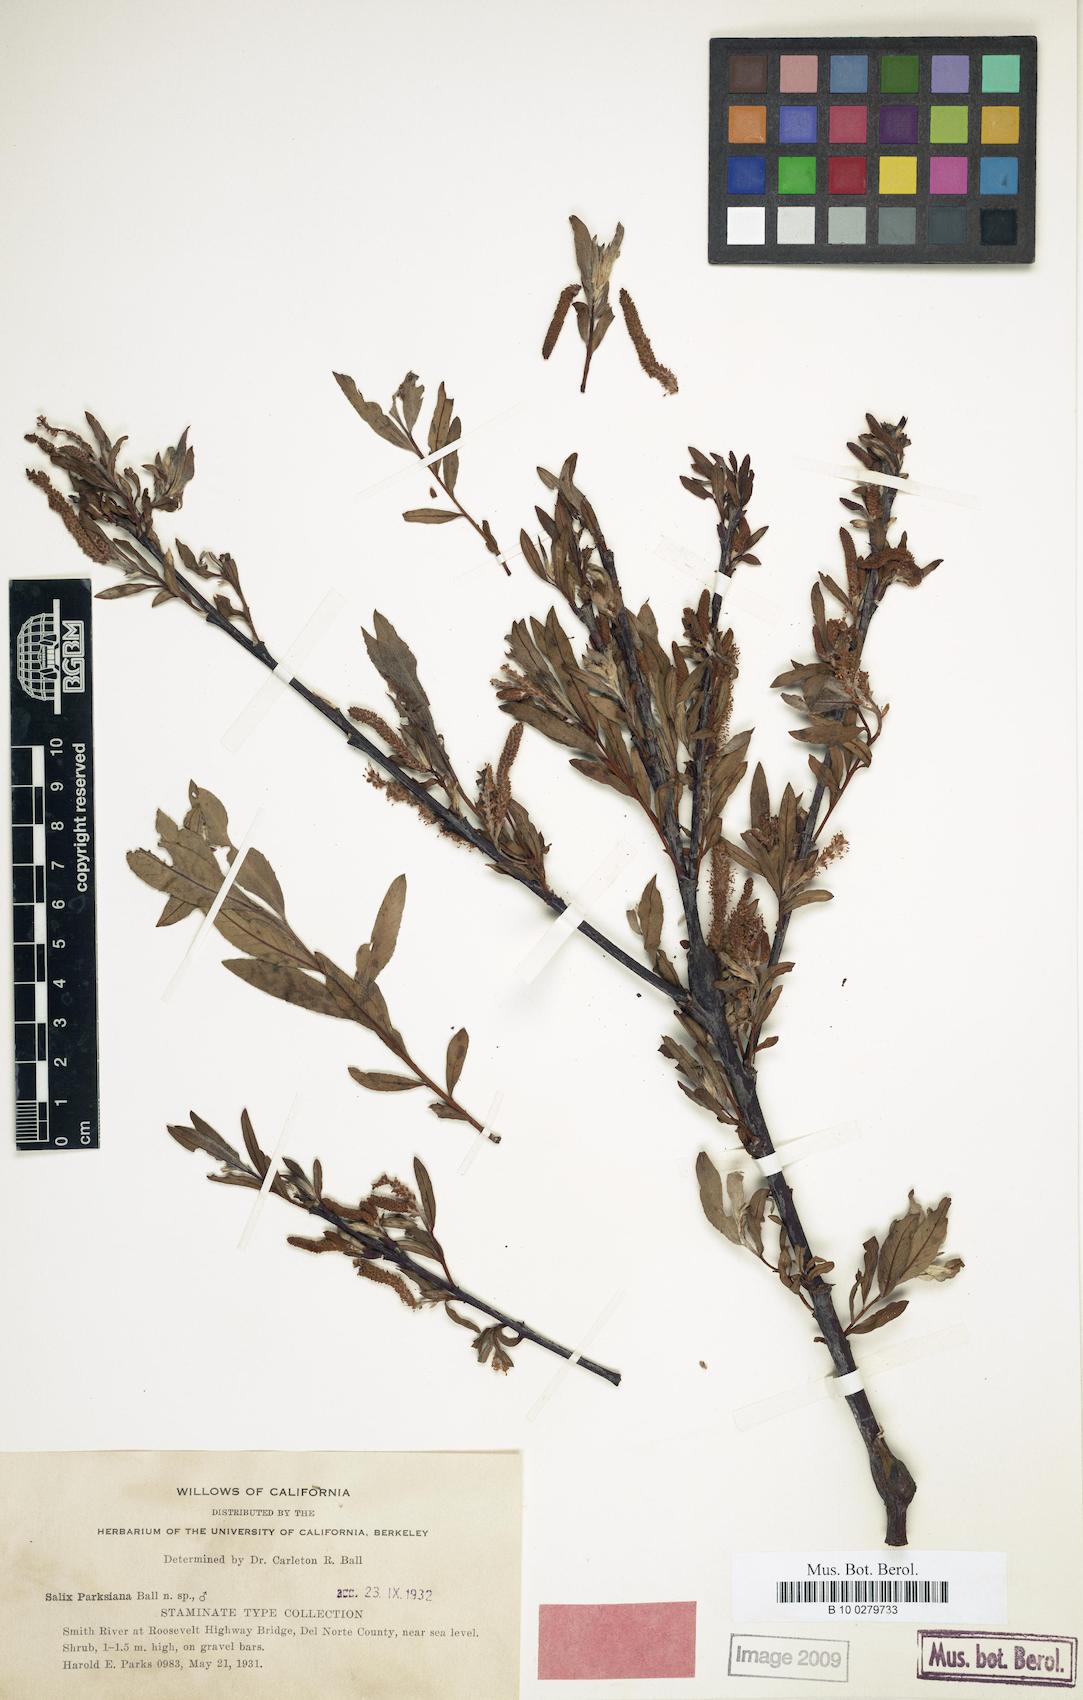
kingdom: Plantae
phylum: Tracheophyta
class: Magnoliopsida
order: Malpighiales
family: Salicaceae
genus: Salix
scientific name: Salix melanopsis
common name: Dusky willow
